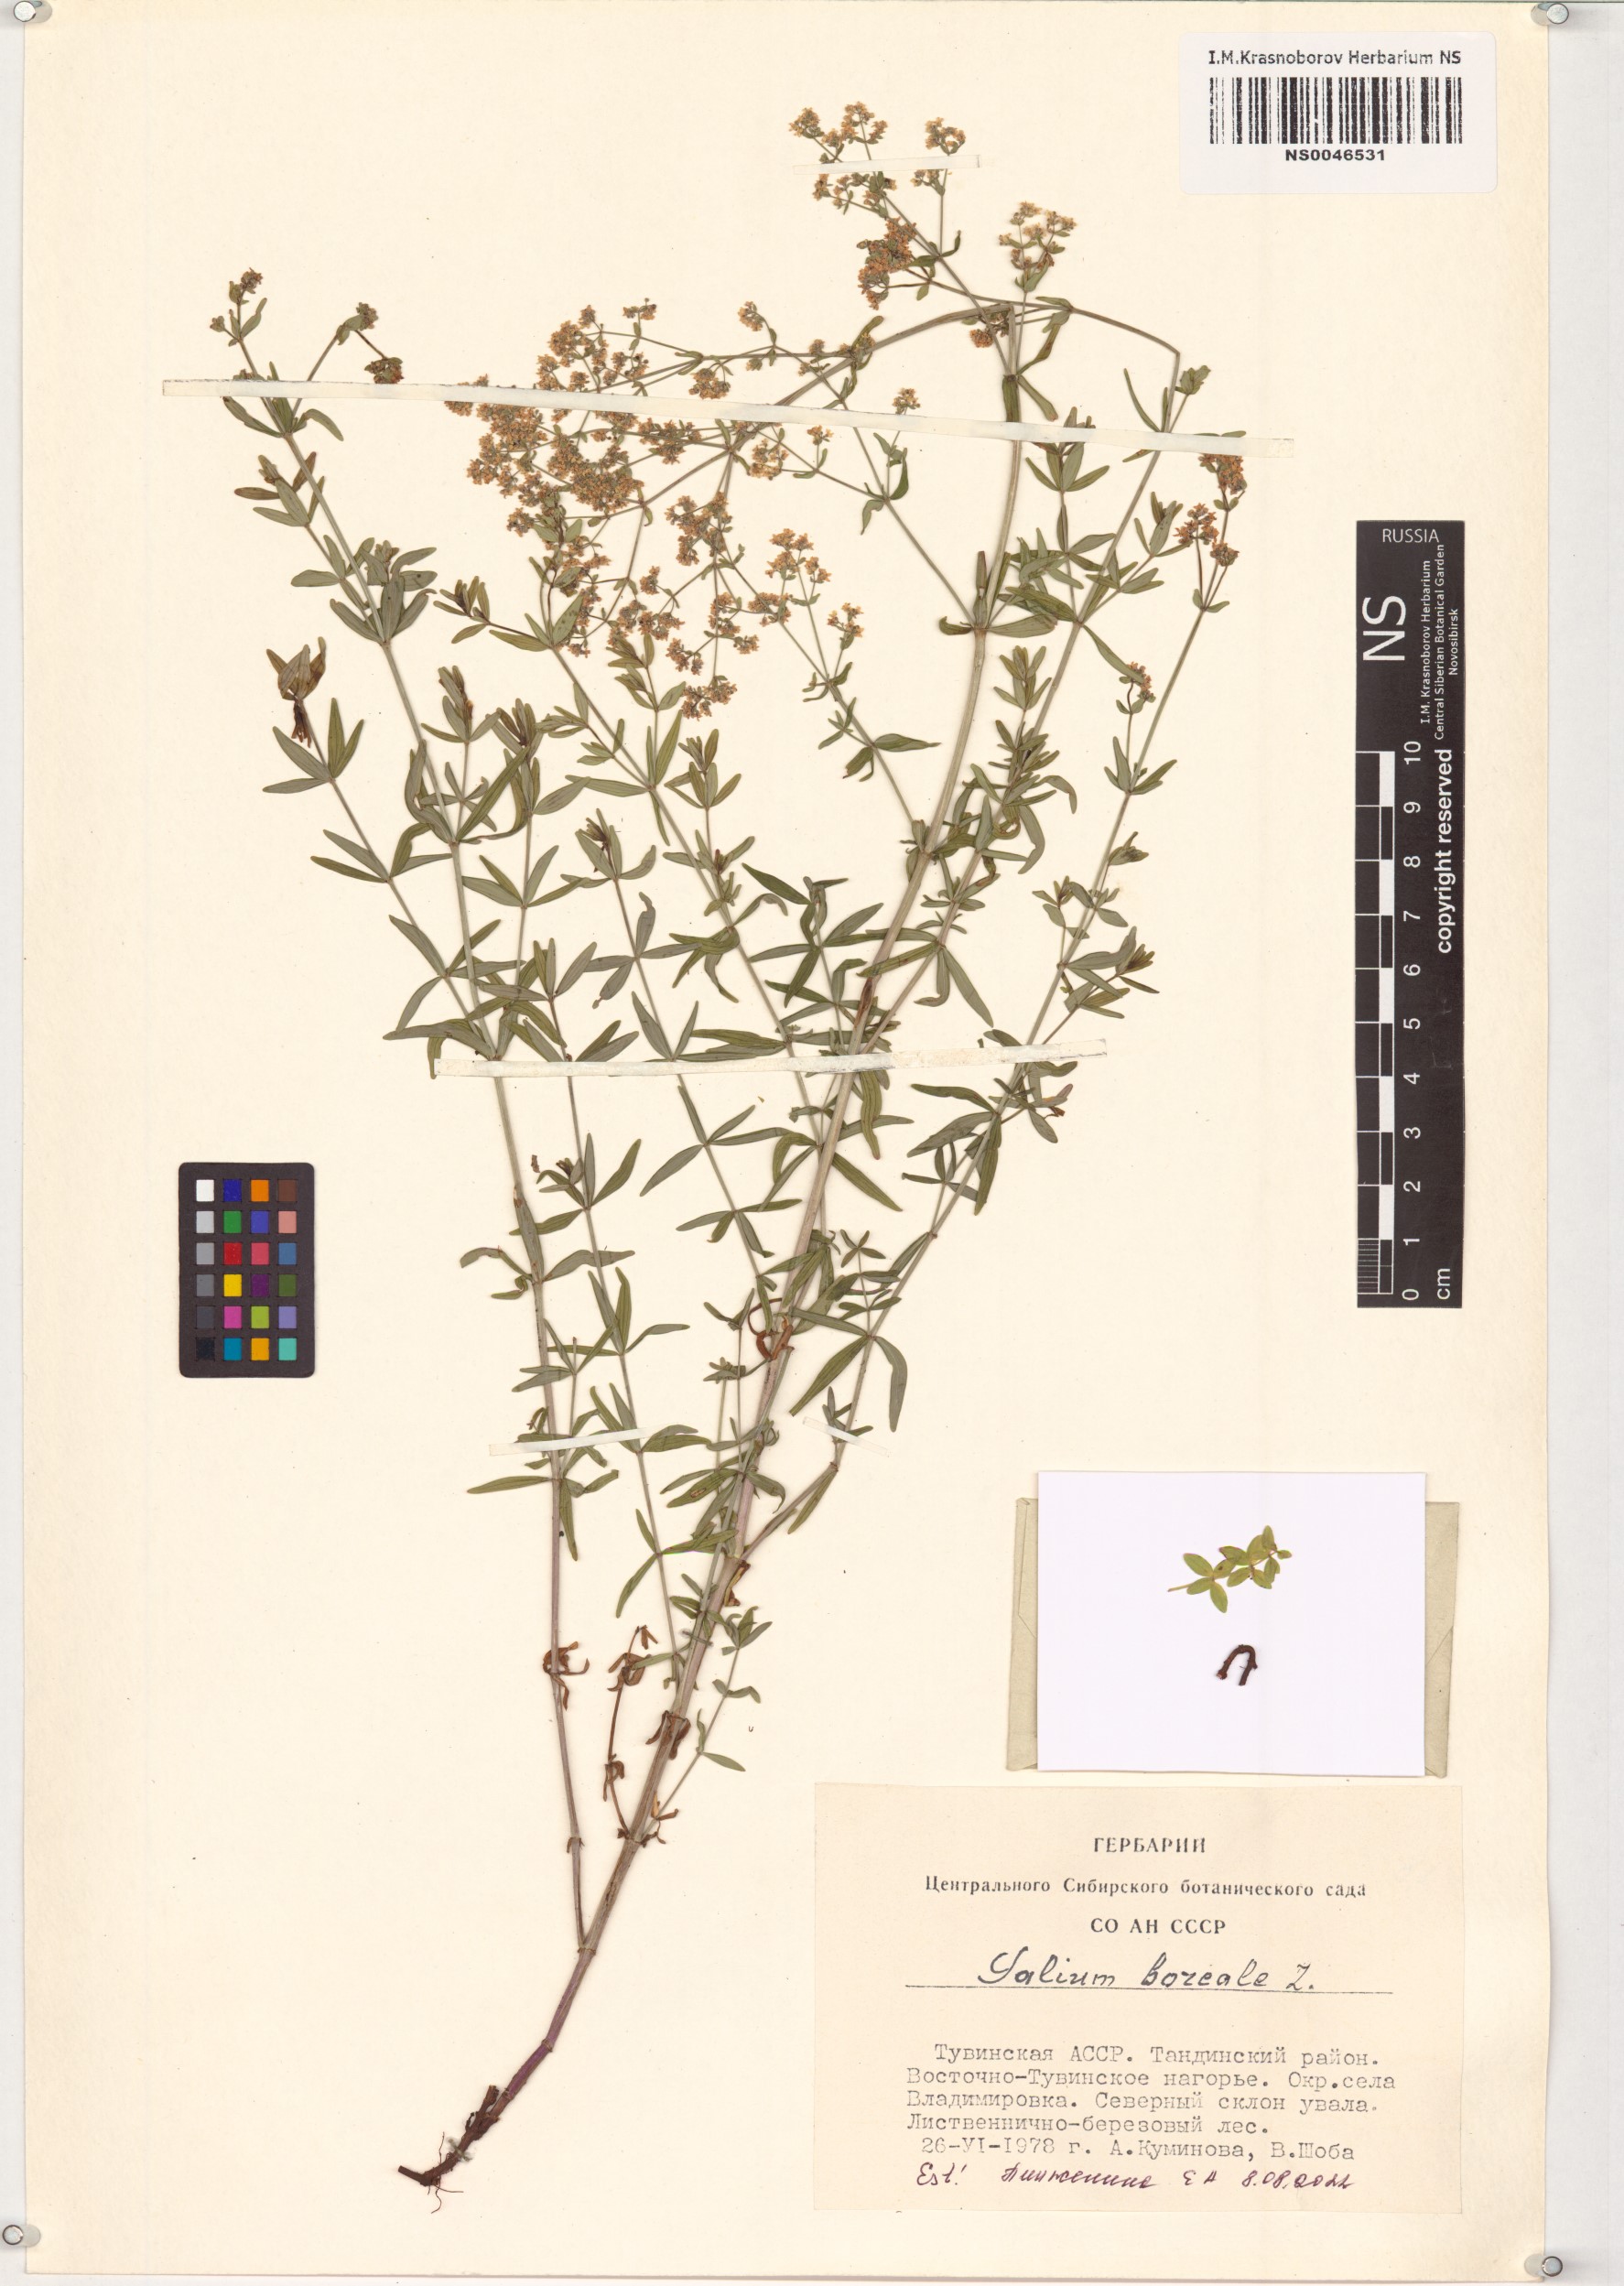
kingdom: Plantae
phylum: Tracheophyta
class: Magnoliopsida
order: Gentianales
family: Rubiaceae
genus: Galium
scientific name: Galium boreale
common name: Northern bedstraw
